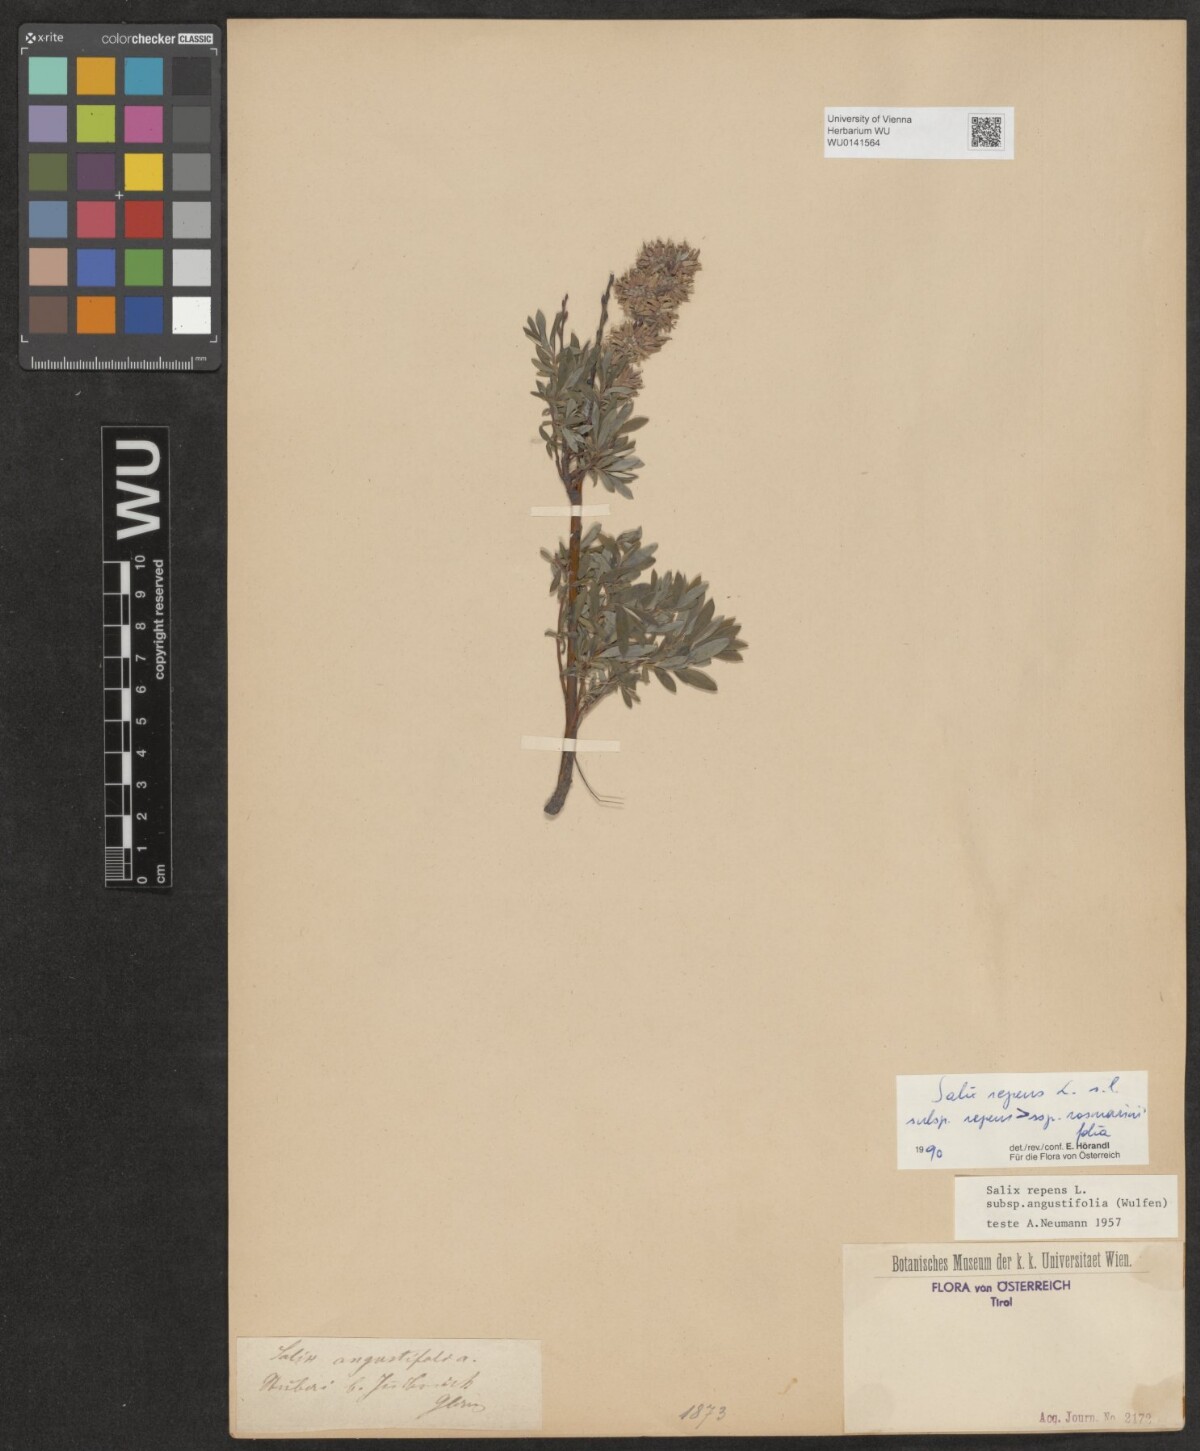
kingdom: Plantae
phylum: Tracheophyta
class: Magnoliopsida
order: Malpighiales
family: Salicaceae
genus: Salix
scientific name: Salix repens
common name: Creeping willow
